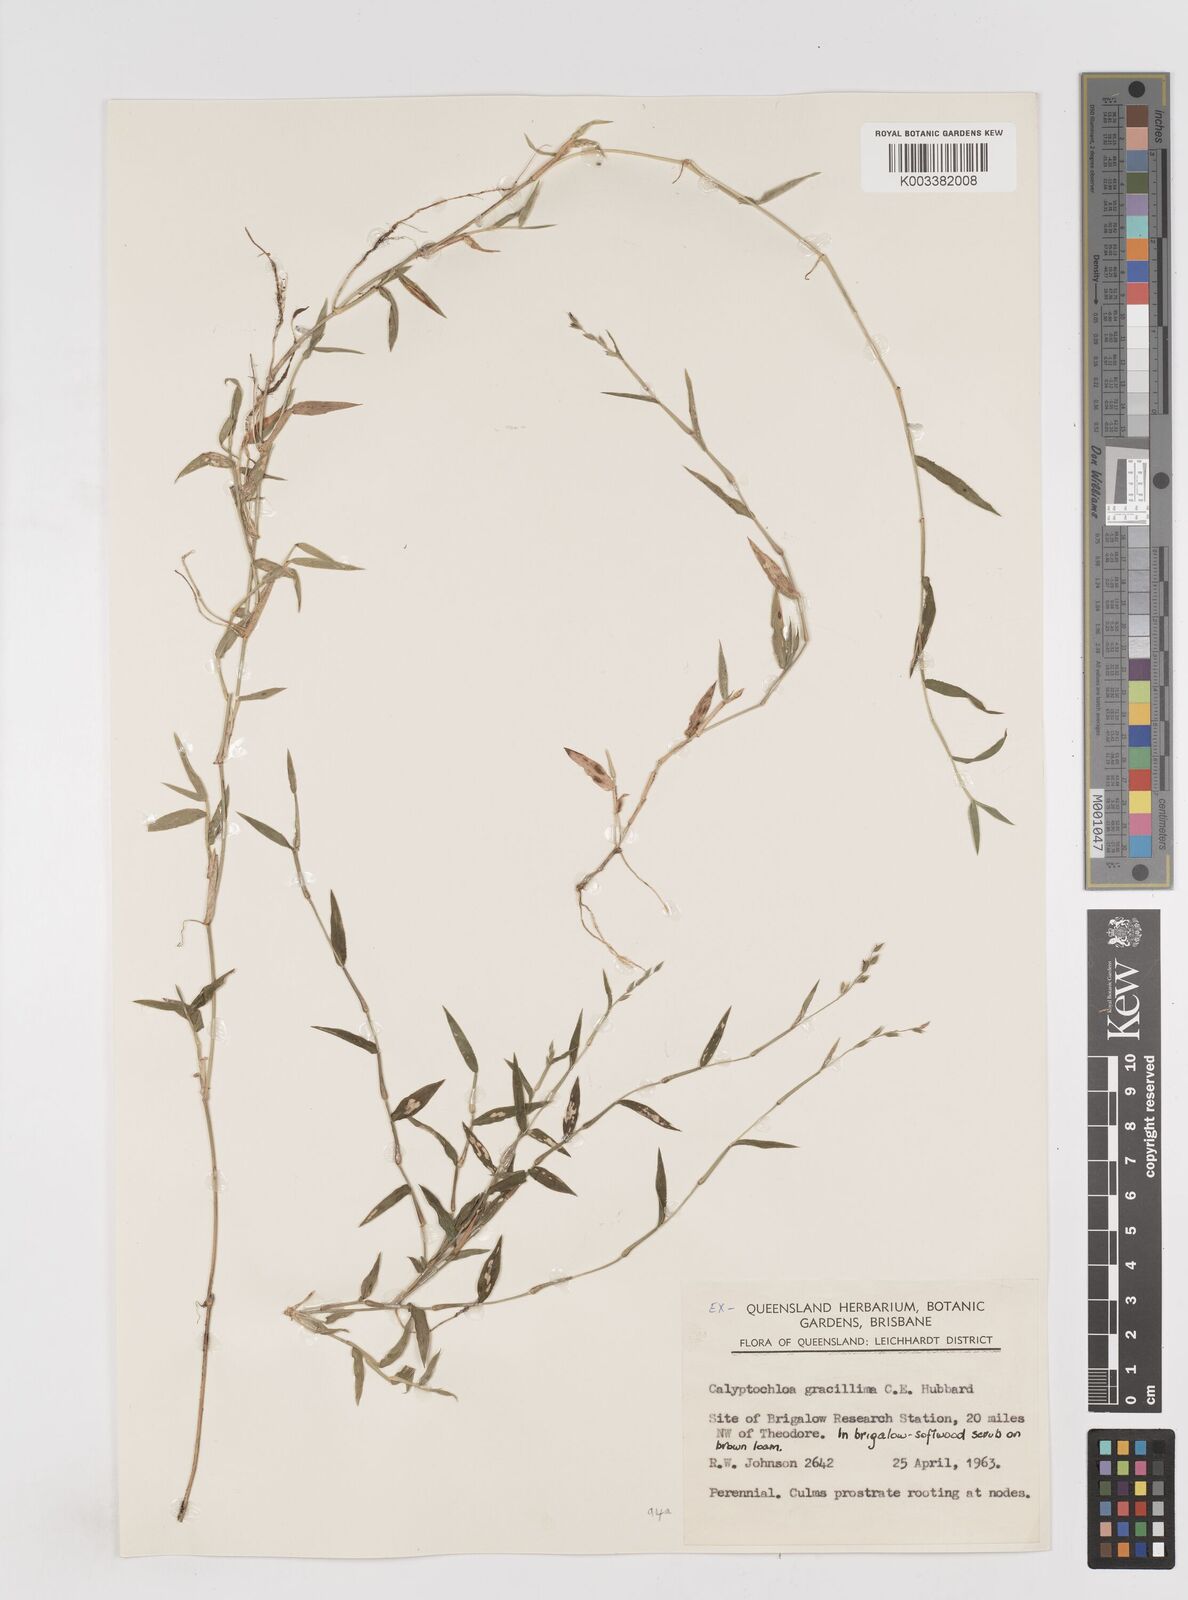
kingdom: Plantae
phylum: Tracheophyta
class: Liliopsida
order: Poales
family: Poaceae
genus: Calyptochloa
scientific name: Calyptochloa gracillima
